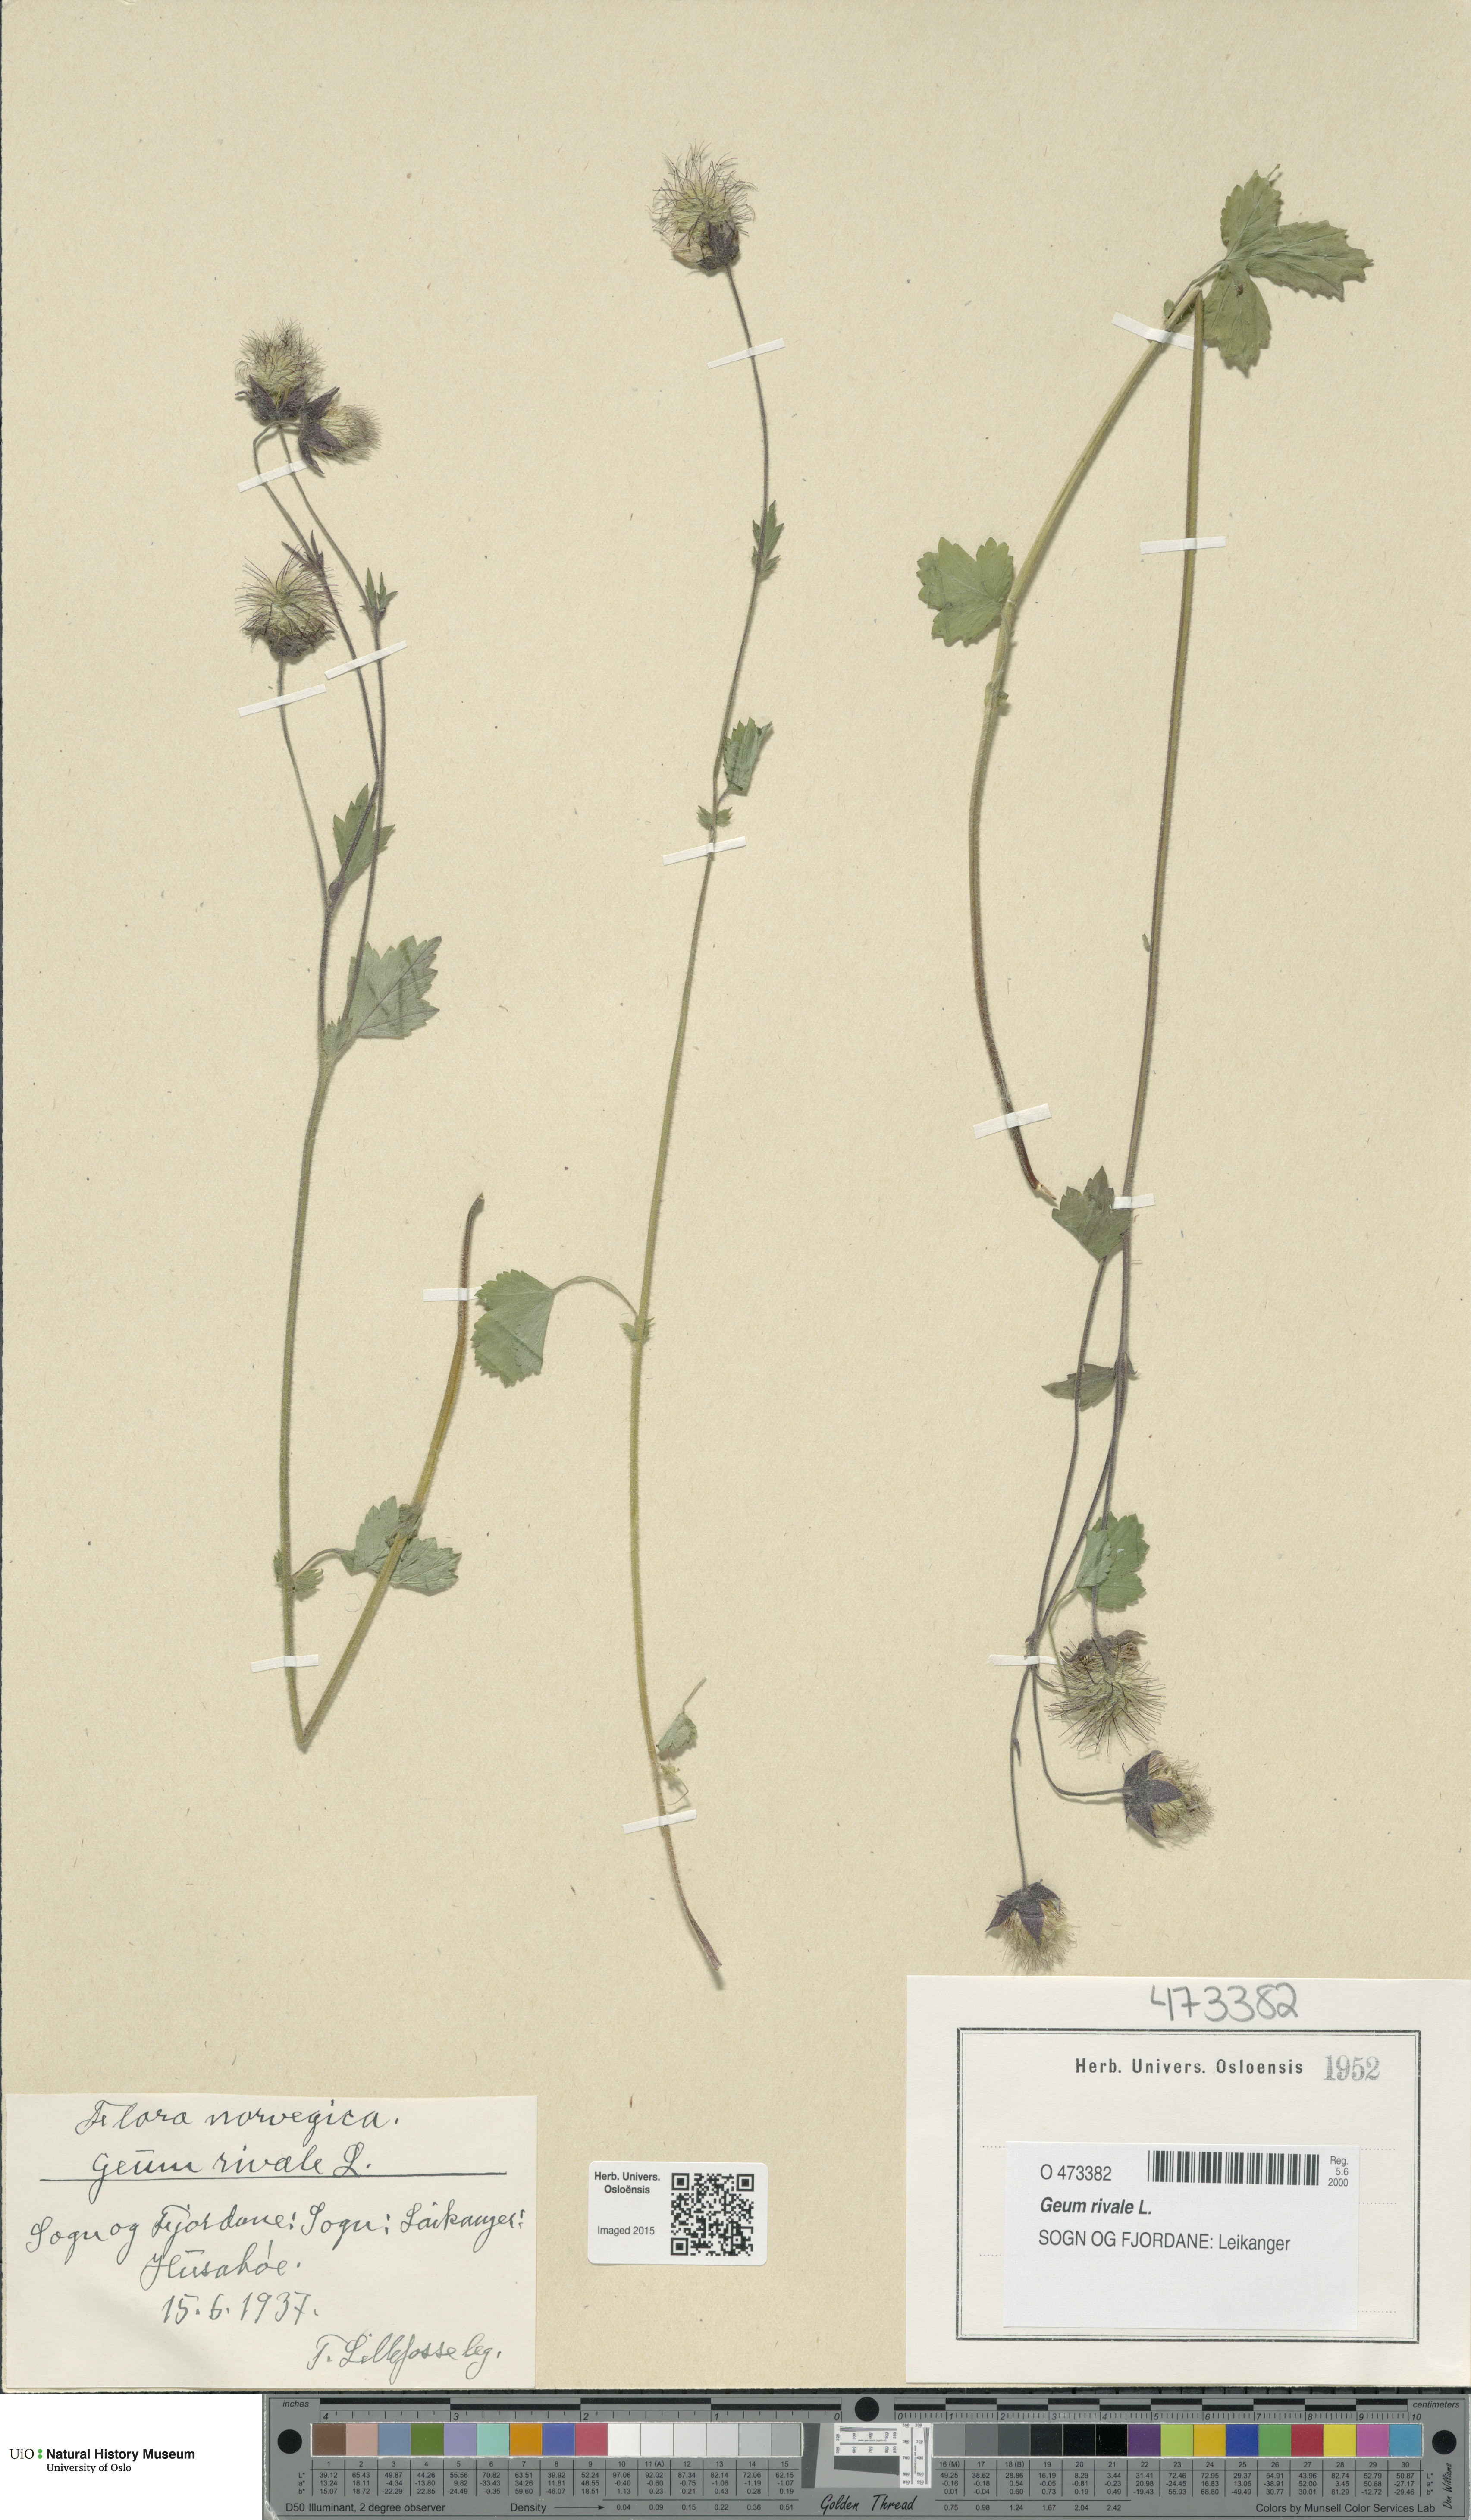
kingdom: Plantae
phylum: Tracheophyta
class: Magnoliopsida
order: Rosales
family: Rosaceae
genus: Geum
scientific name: Geum rivale
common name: Water avens
